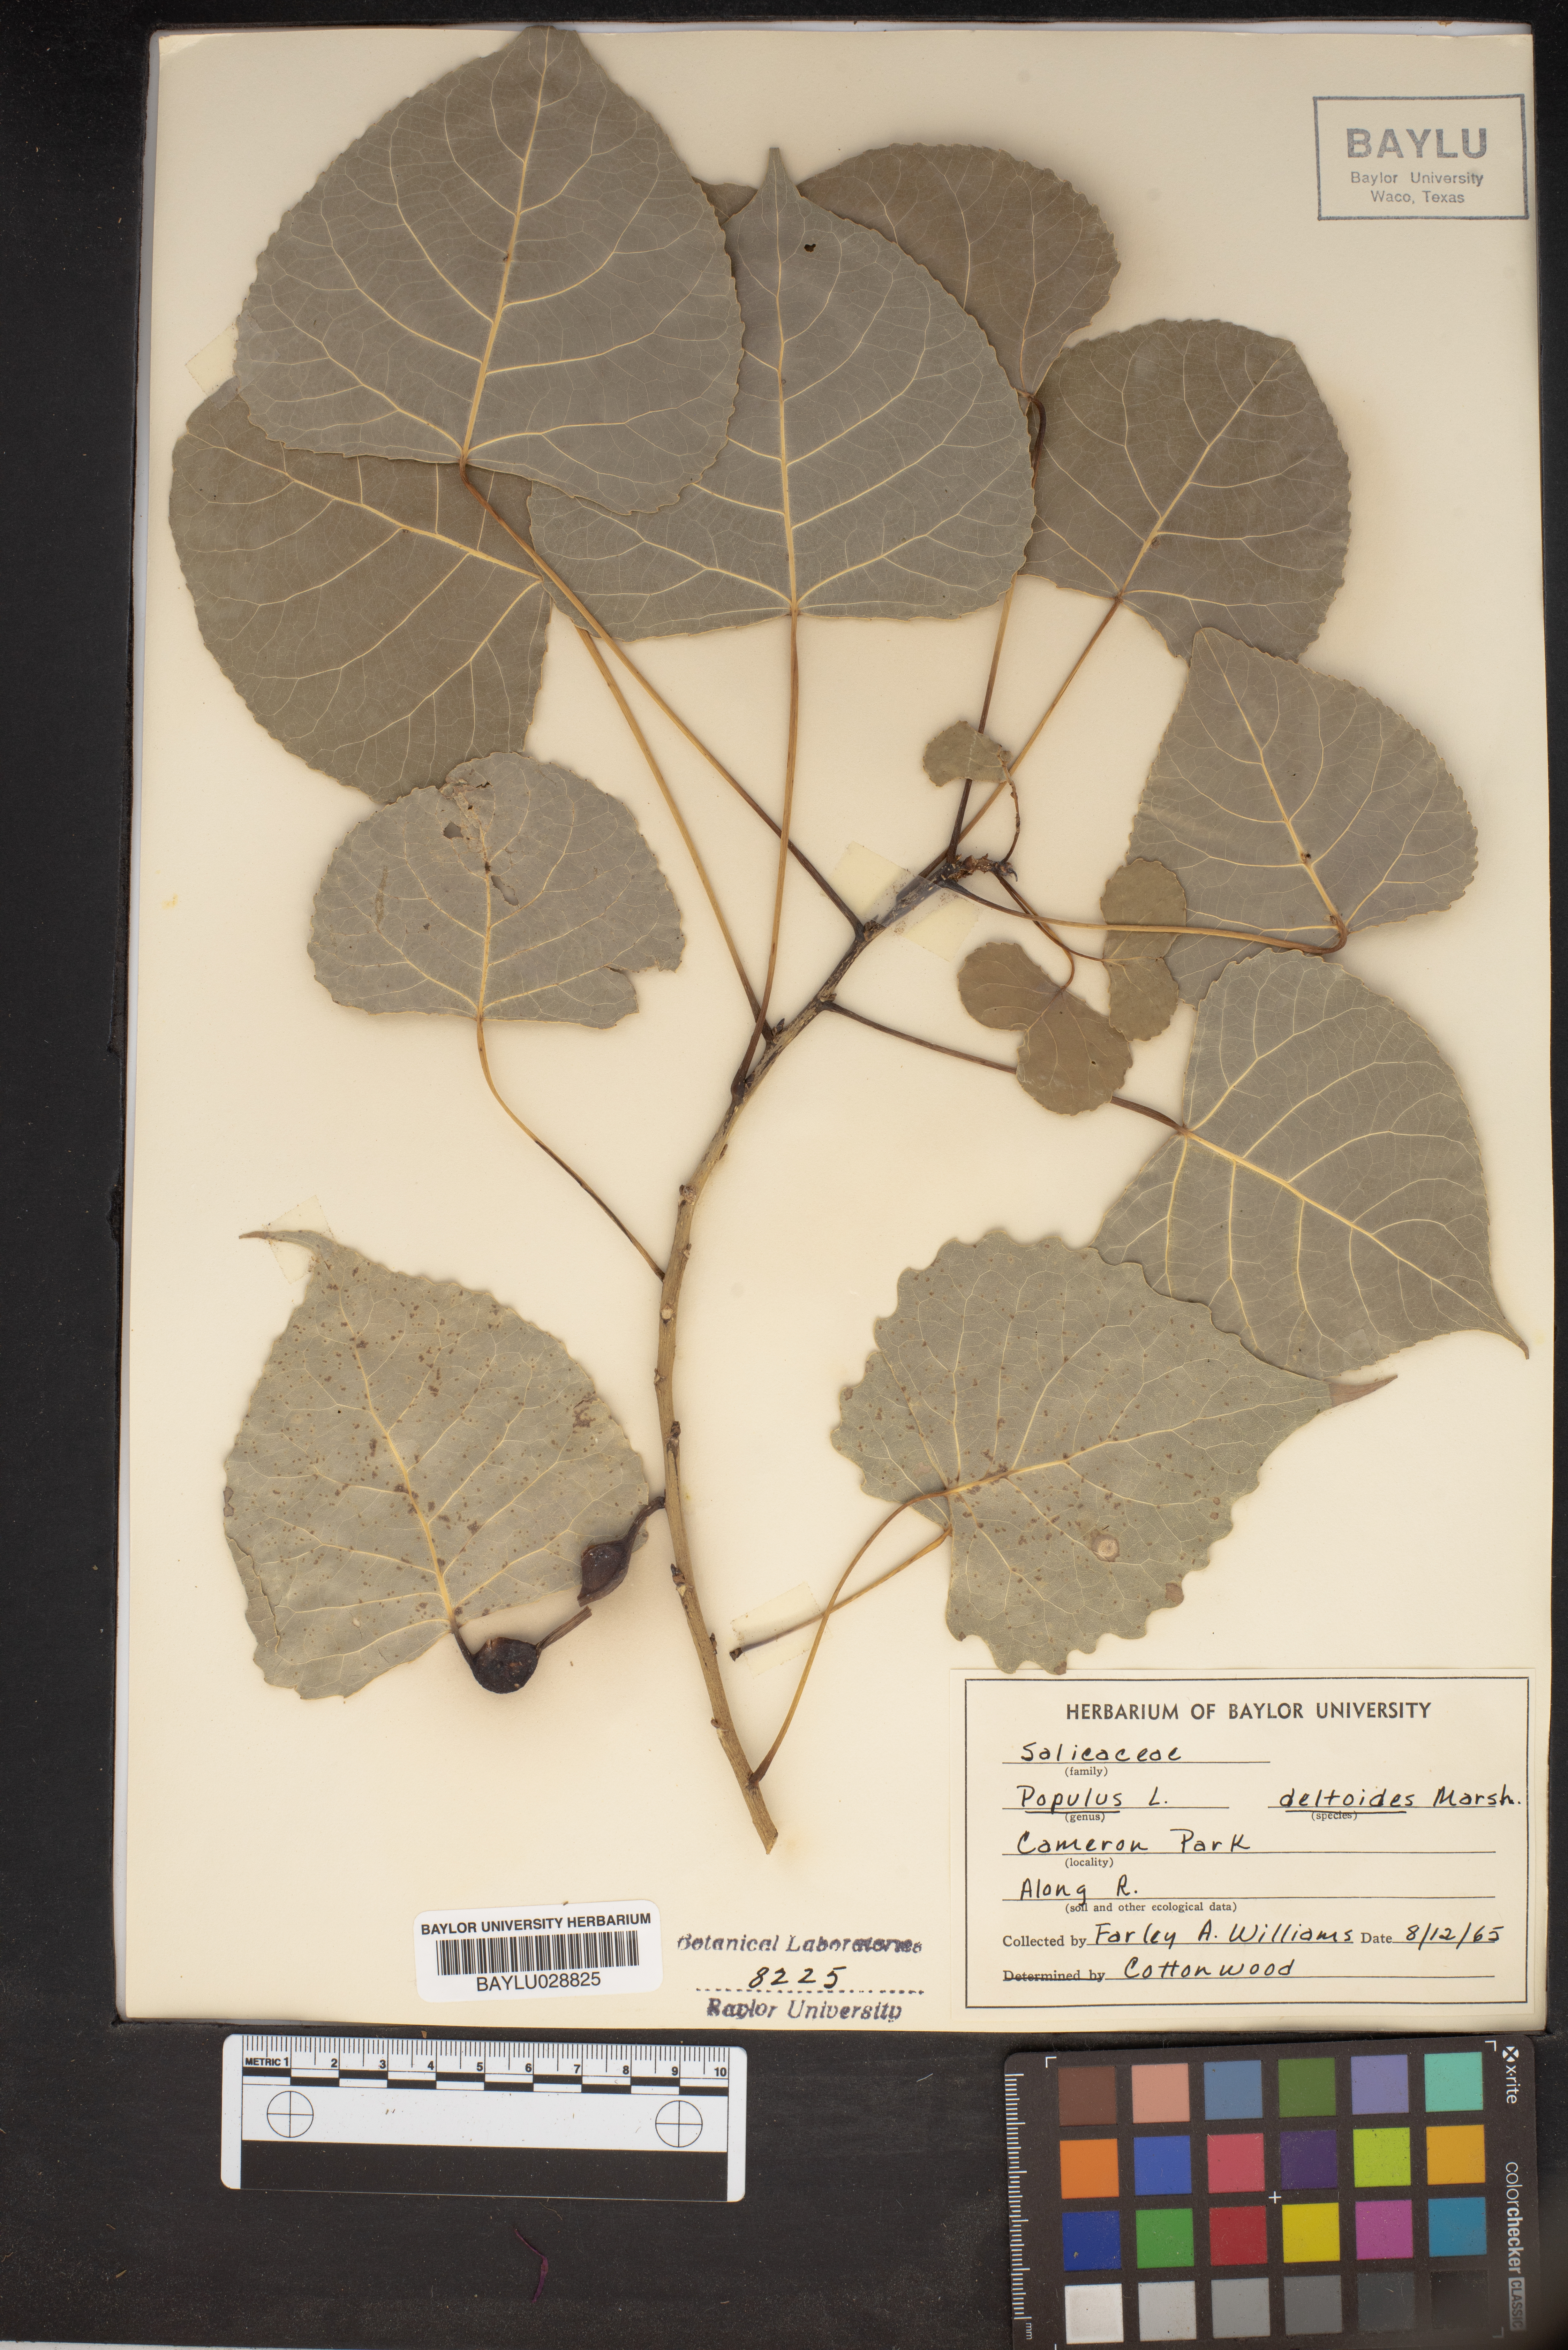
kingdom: Plantae
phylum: Tracheophyta
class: Magnoliopsida
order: Malpighiales
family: Salicaceae
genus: Populus
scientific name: Populus deltoides
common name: Eastern cottonwood
